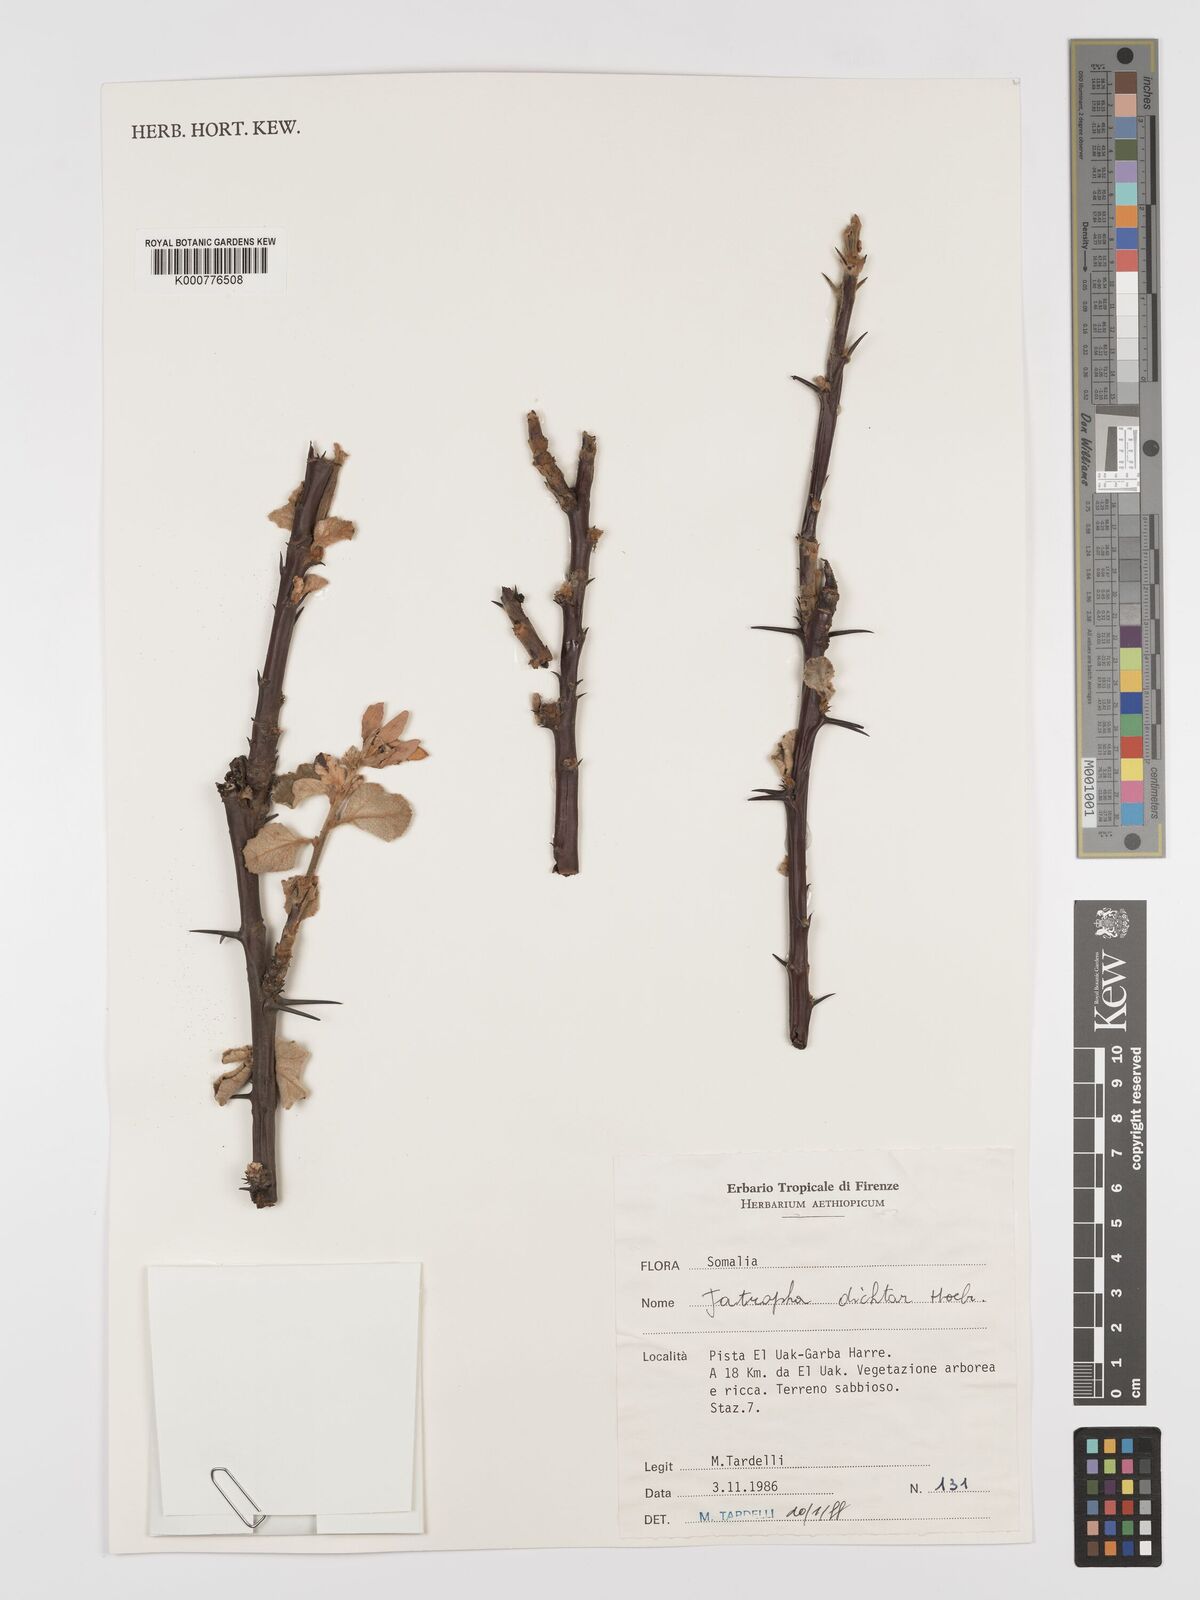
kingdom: Plantae
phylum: Tracheophyta
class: Magnoliopsida
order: Malpighiales
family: Euphorbiaceae
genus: Jatropha
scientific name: Jatropha dichtar
